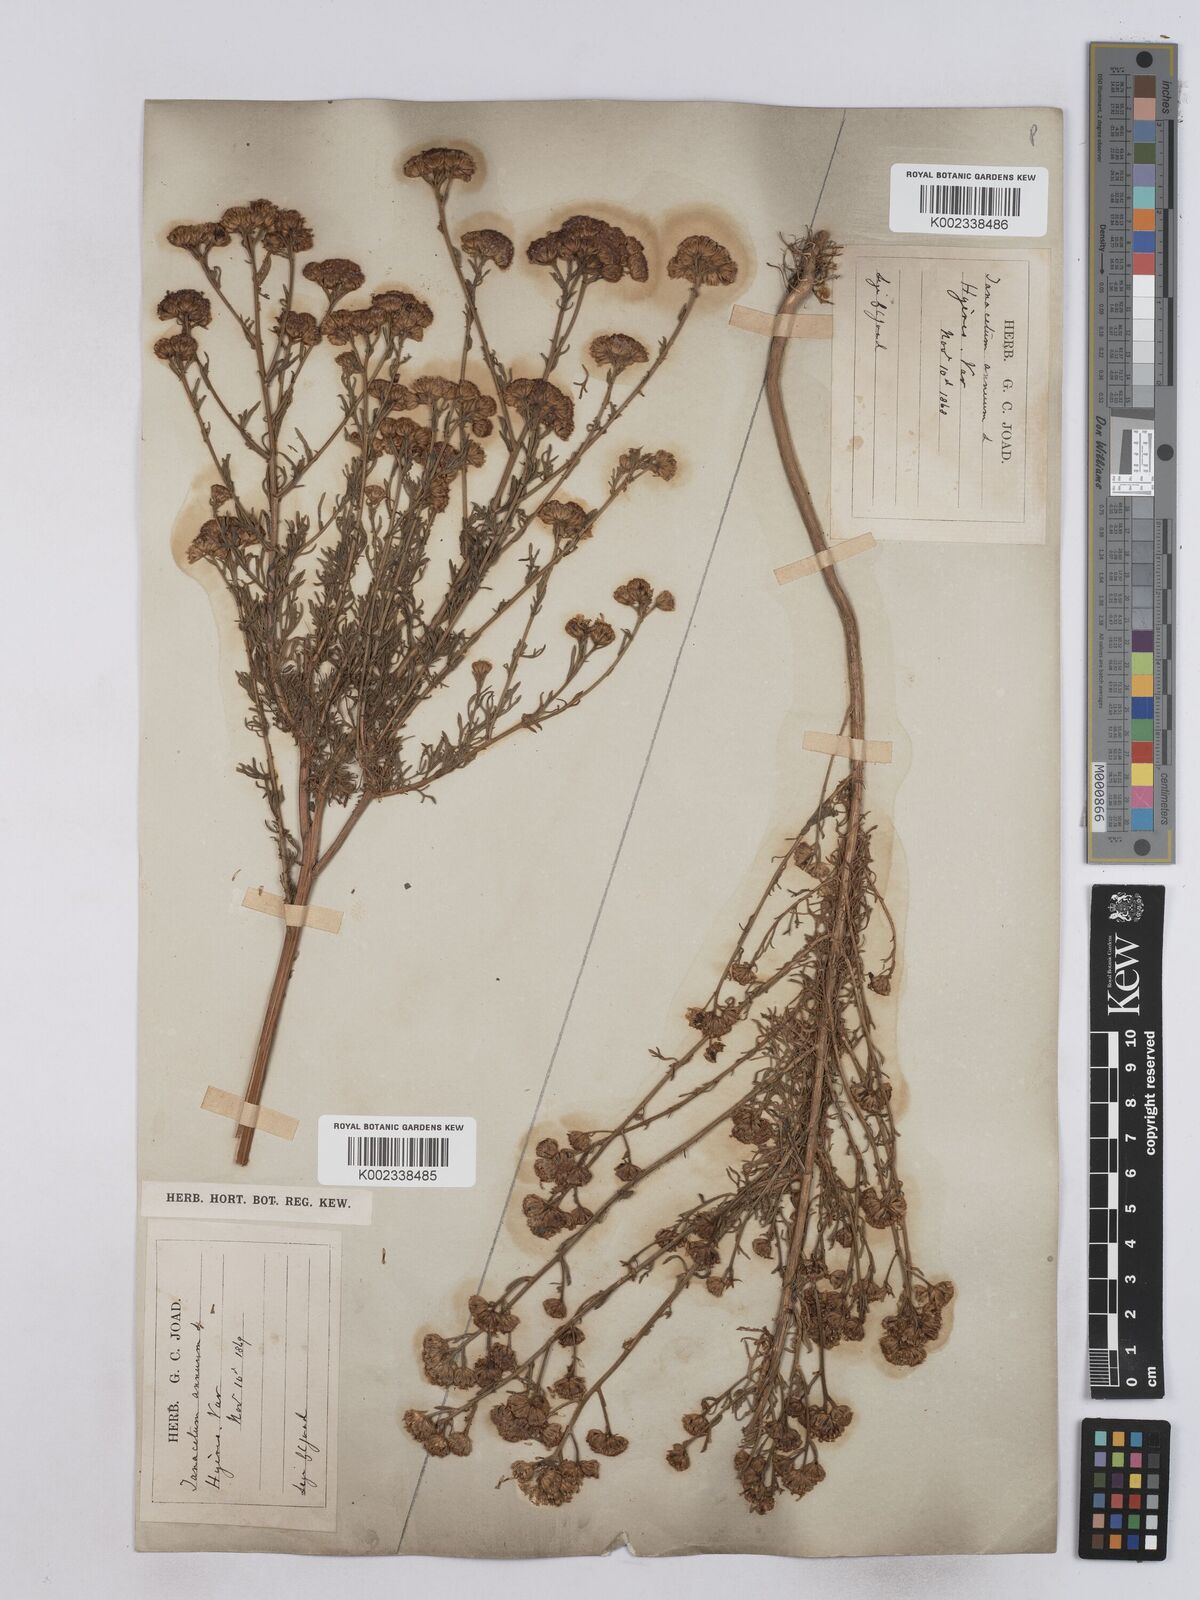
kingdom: Plantae
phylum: Tracheophyta
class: Magnoliopsida
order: Asterales
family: Asteraceae
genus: Vogtia
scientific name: Vogtia annua
